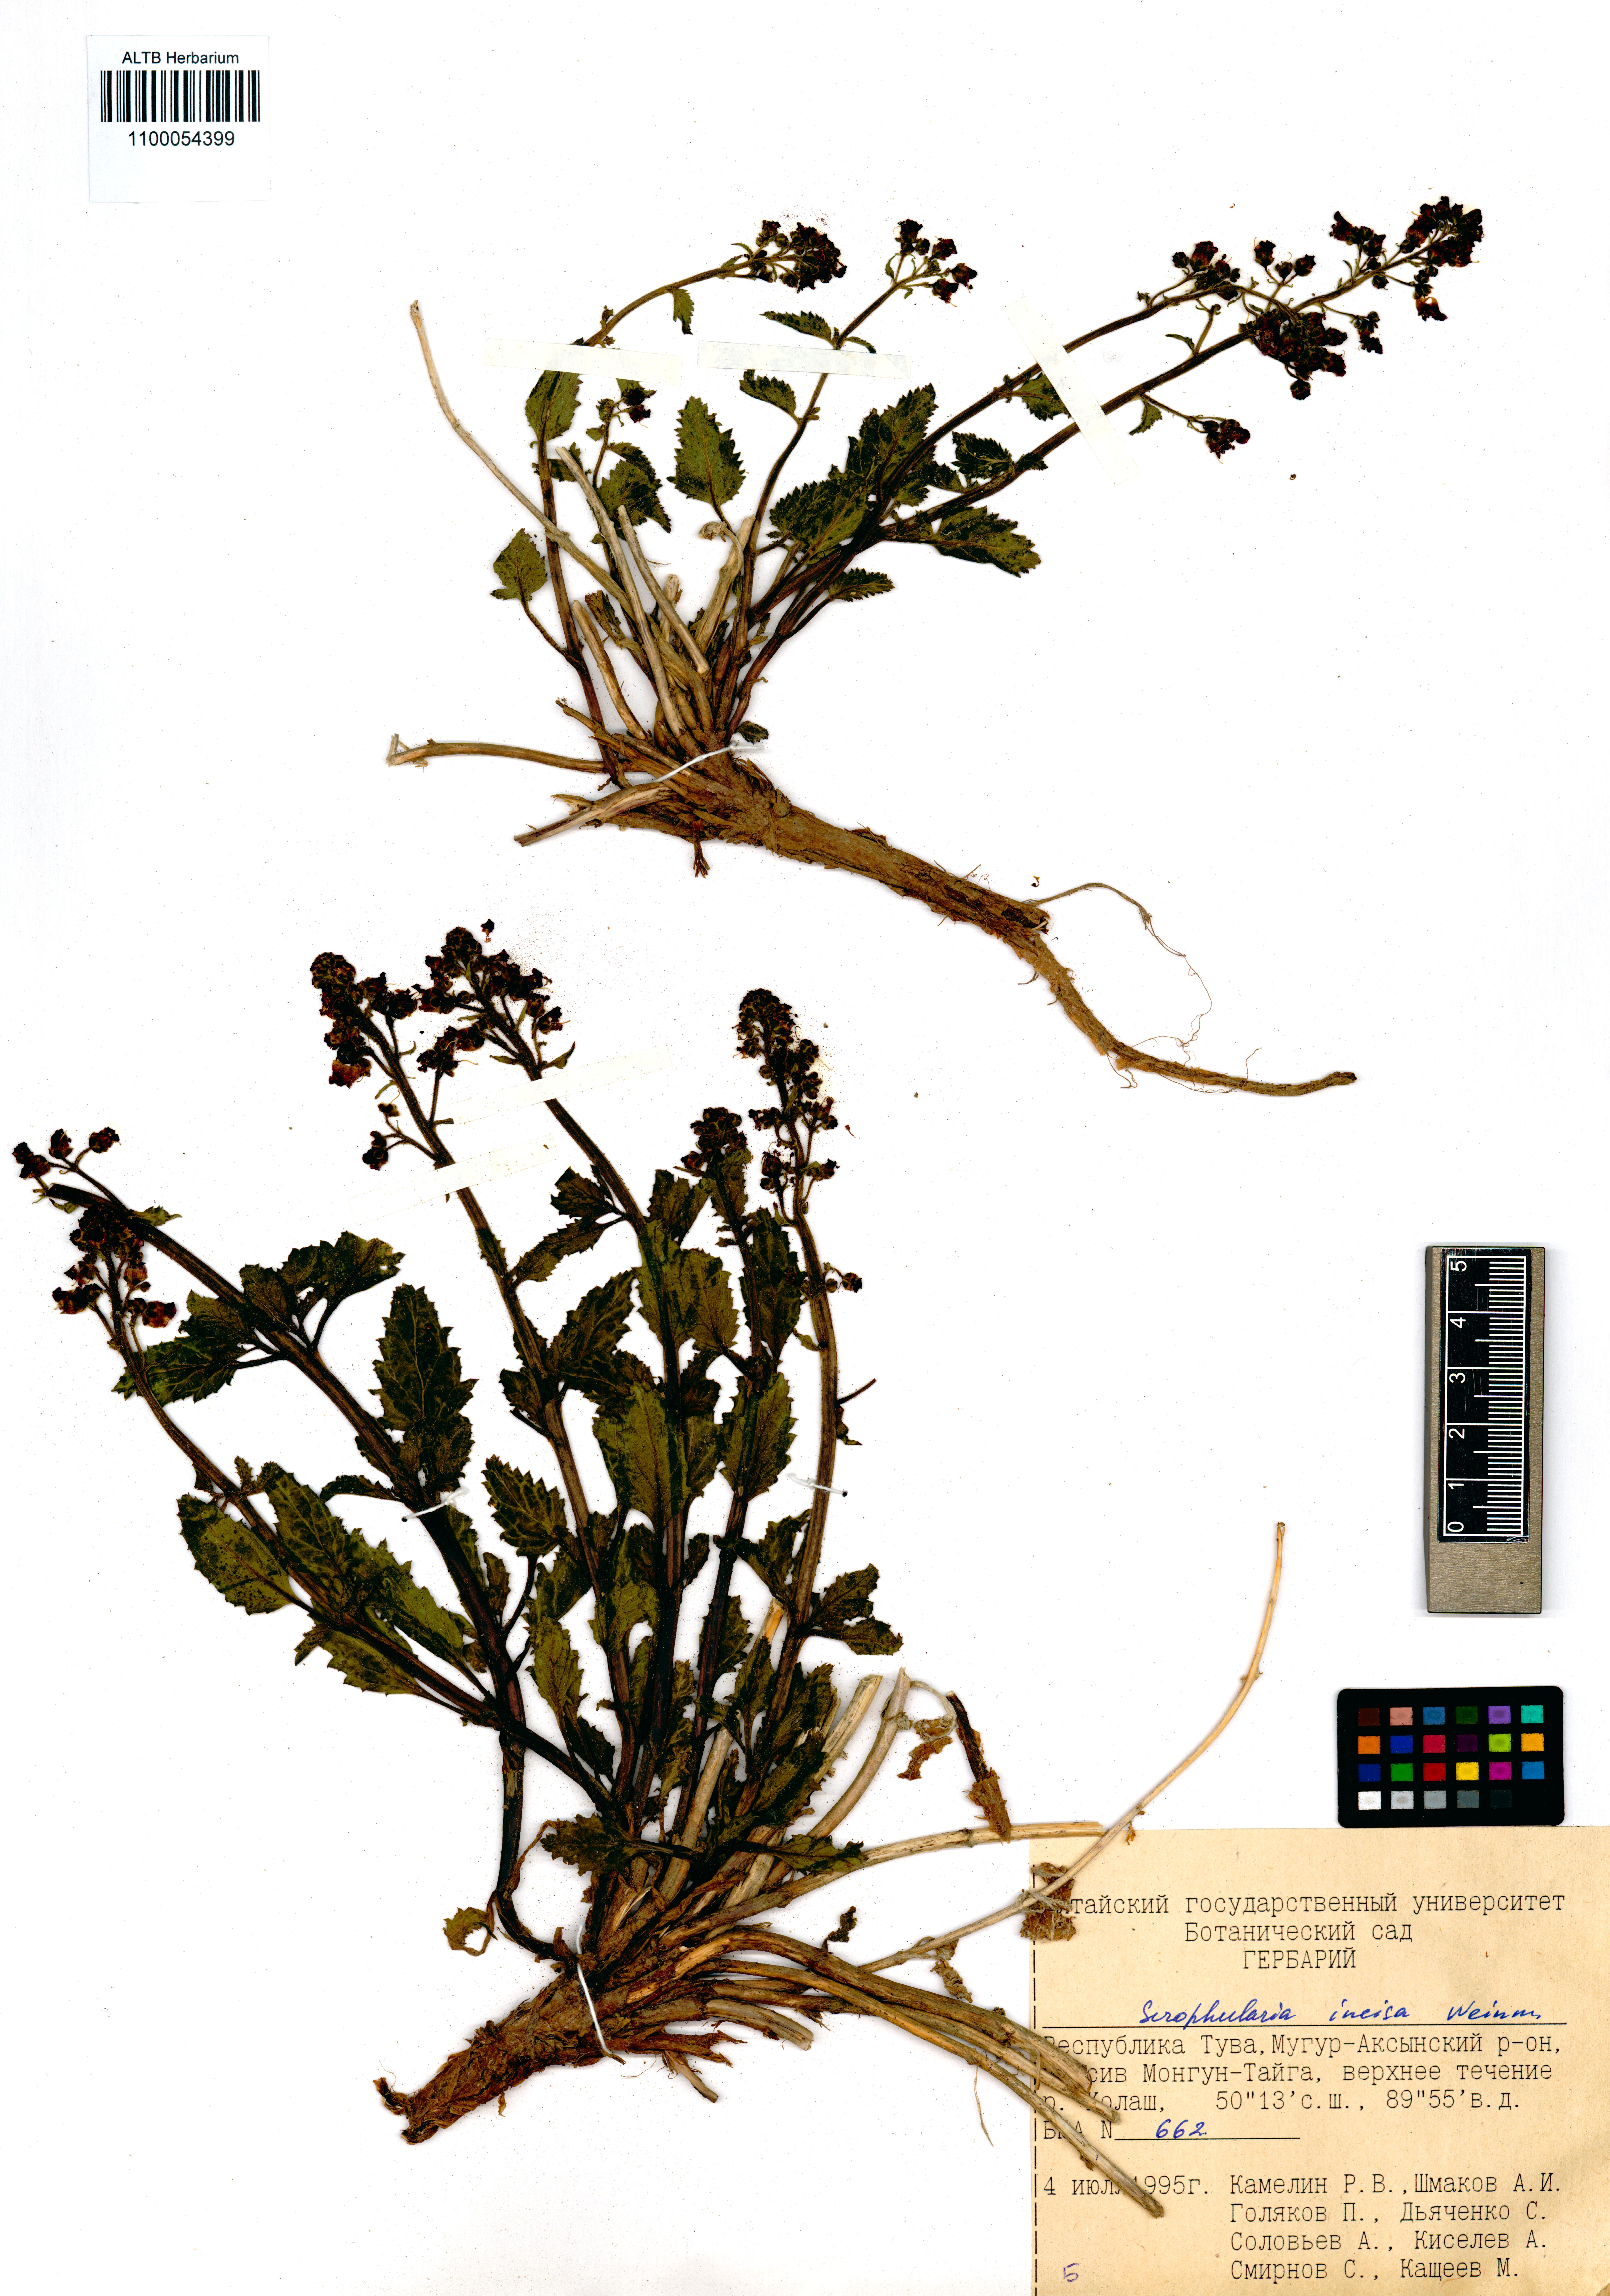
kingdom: Plantae
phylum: Tracheophyta
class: Magnoliopsida
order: Lamiales
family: Scrophulariaceae
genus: Scrophularia
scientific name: Scrophularia incisa
